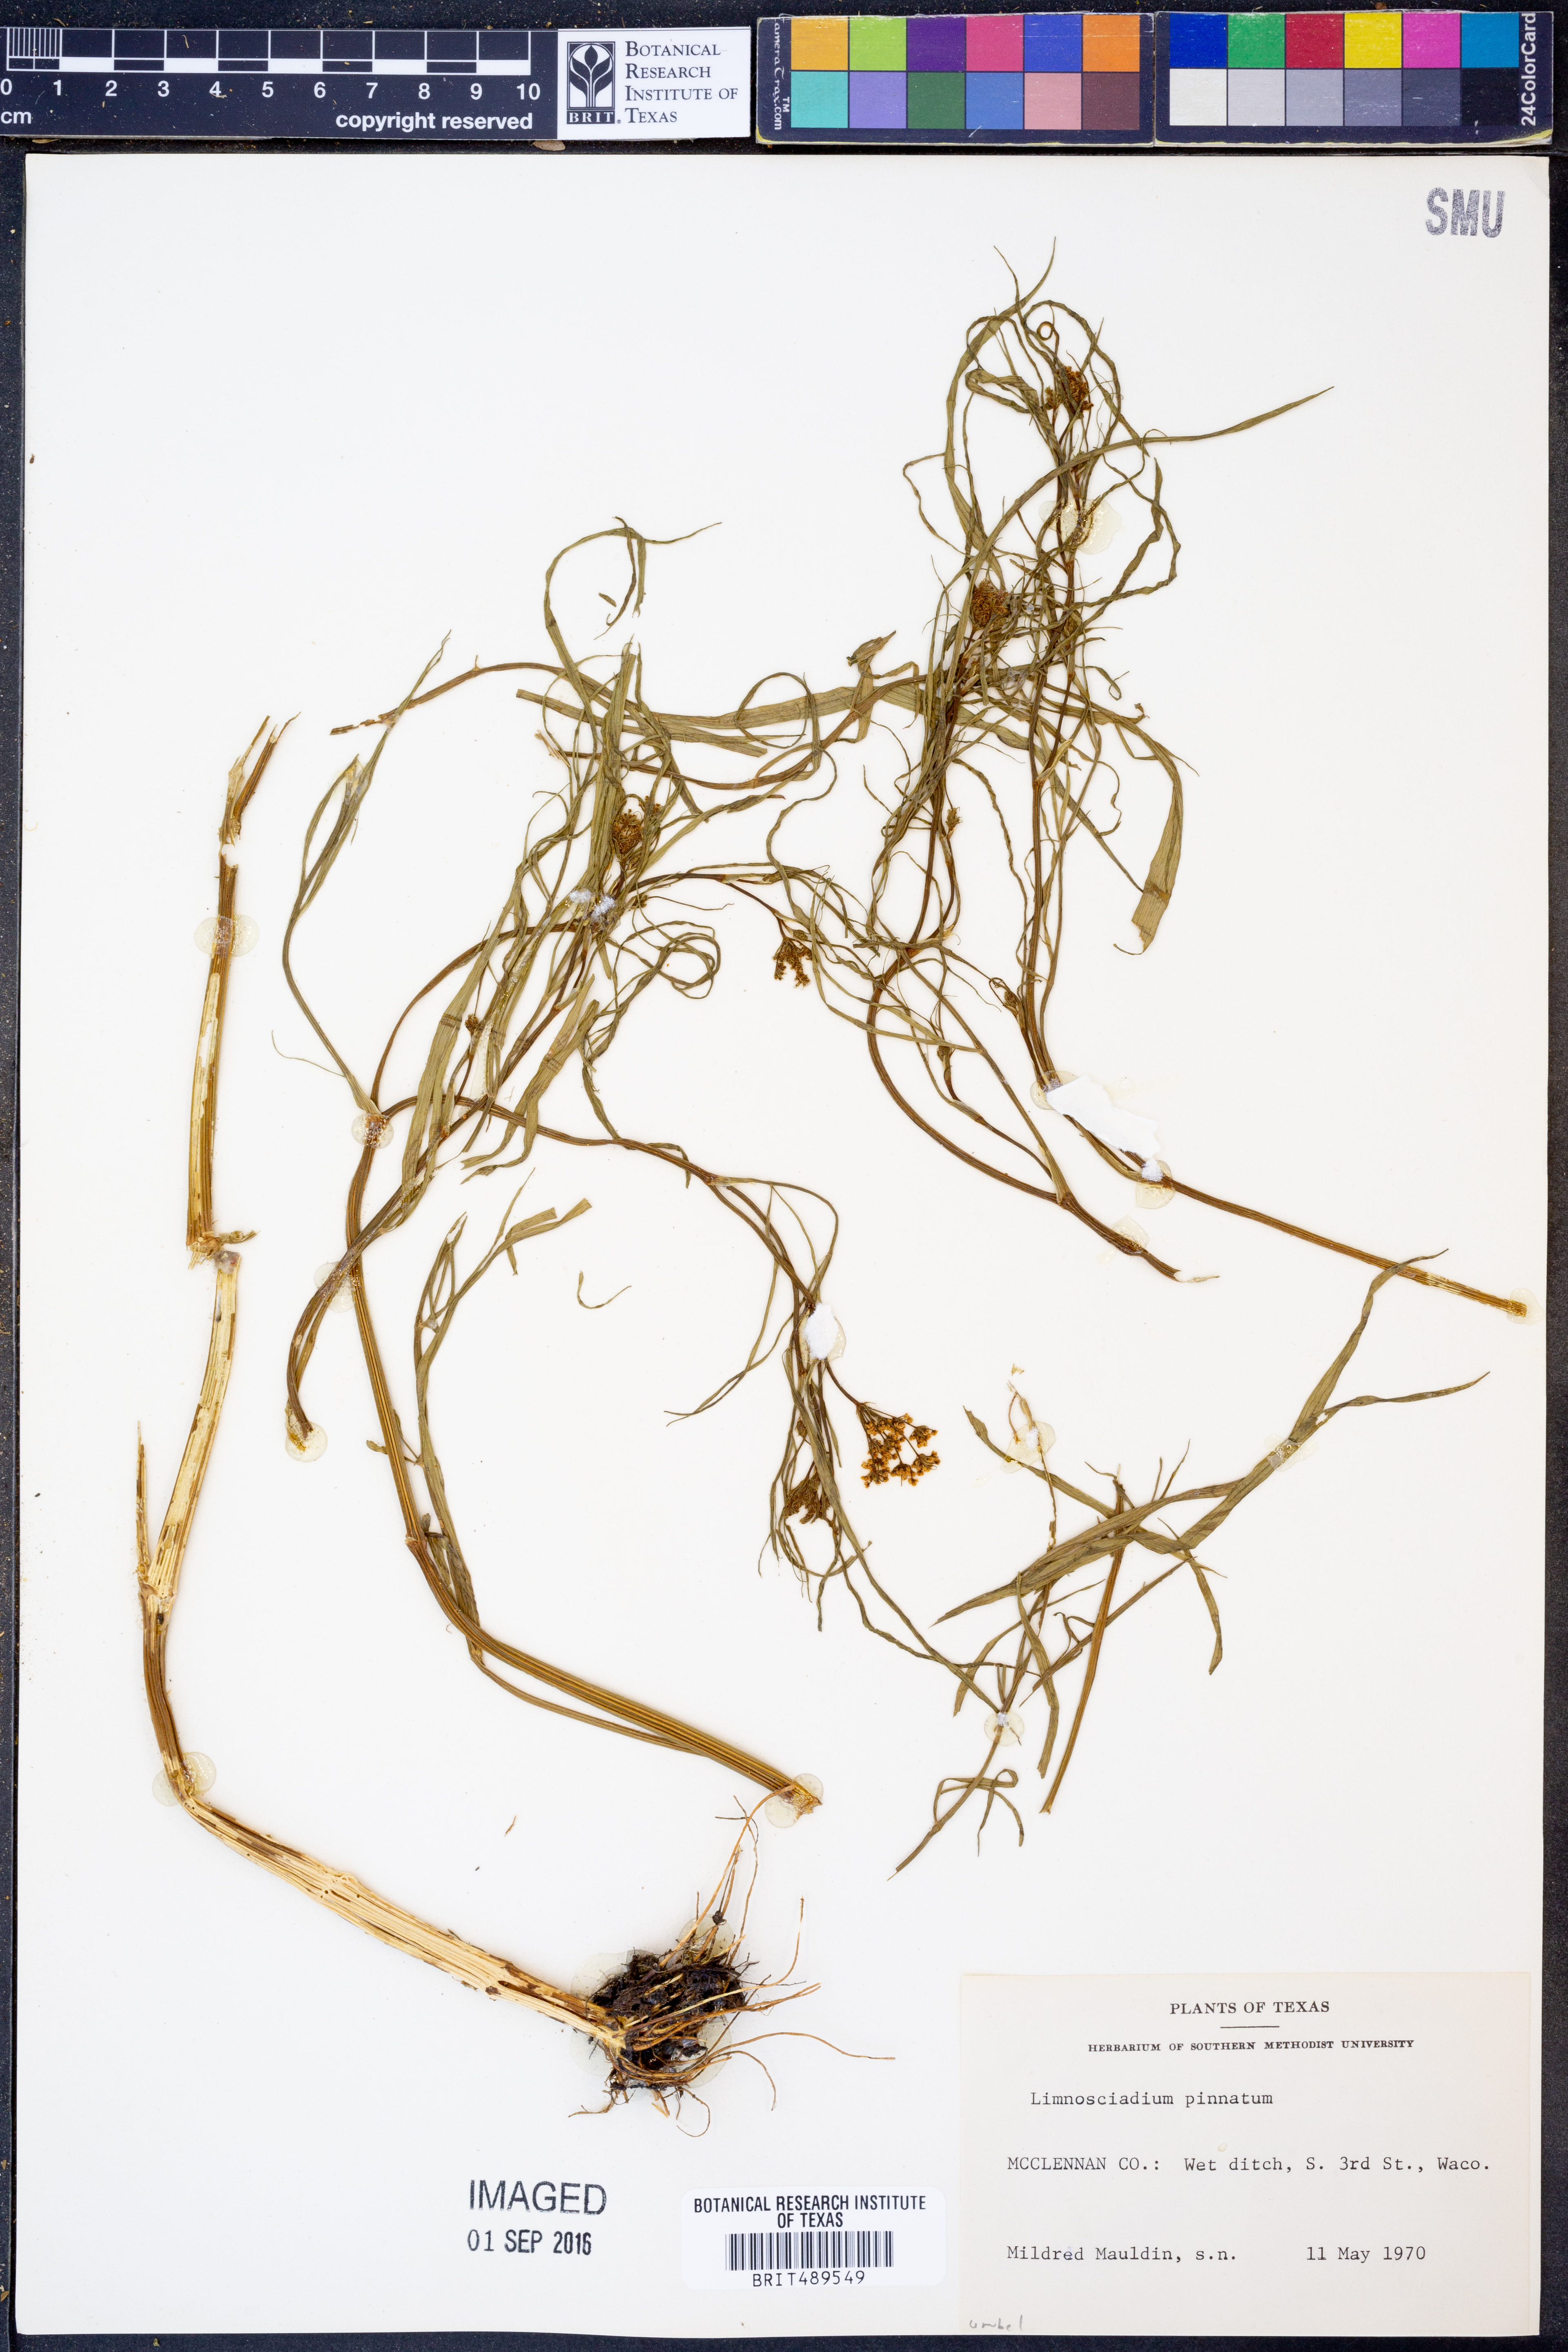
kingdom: Plantae
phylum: Tracheophyta
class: Magnoliopsida
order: Apiales
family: Apiaceae
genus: Limnosciadium
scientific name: Limnosciadium pinnatum
